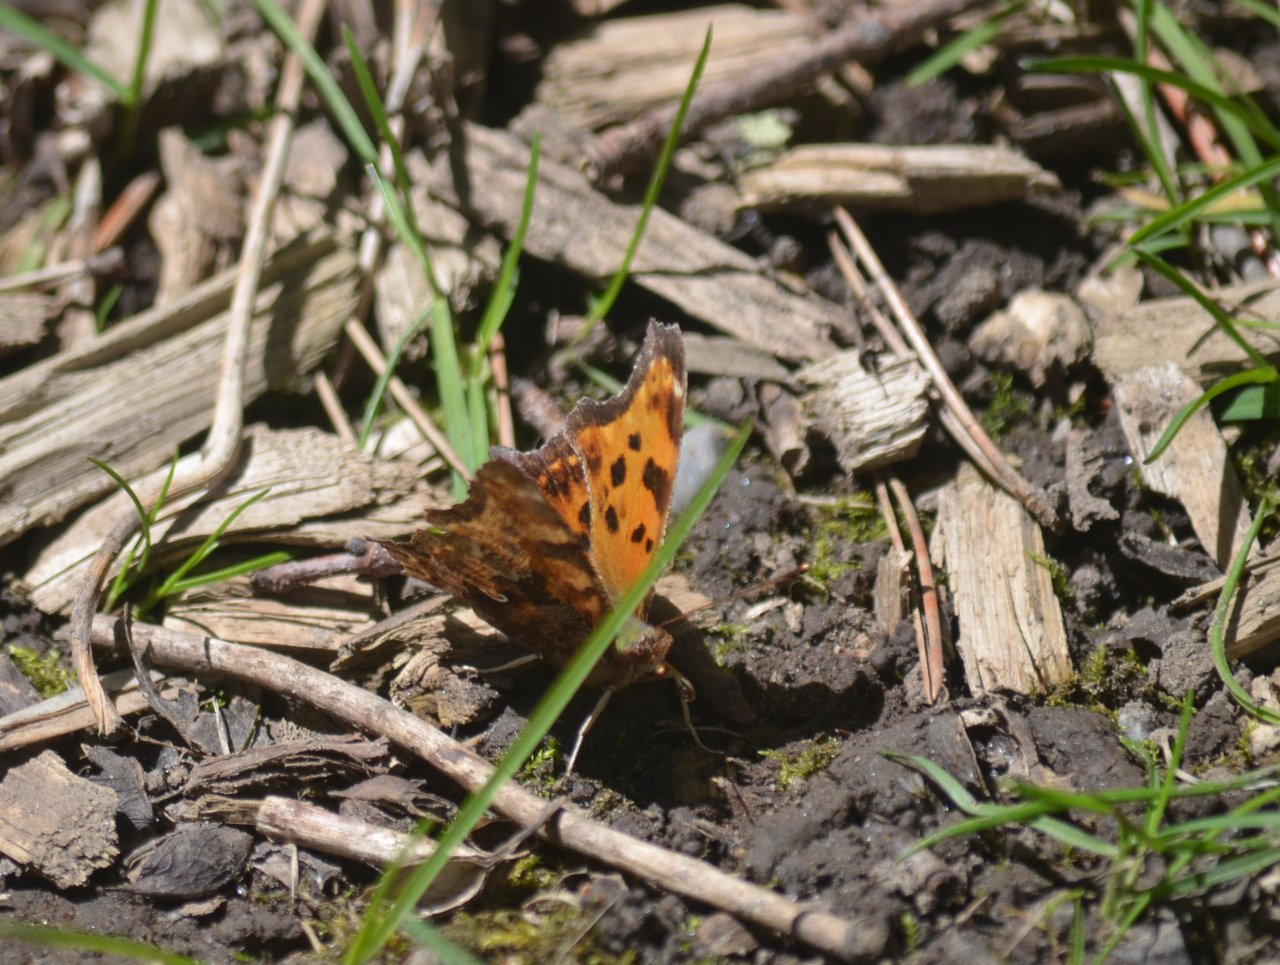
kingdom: Animalia
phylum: Arthropoda
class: Insecta
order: Lepidoptera
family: Nymphalidae
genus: Polygonia
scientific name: Polygonia comma
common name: Eastern Comma
